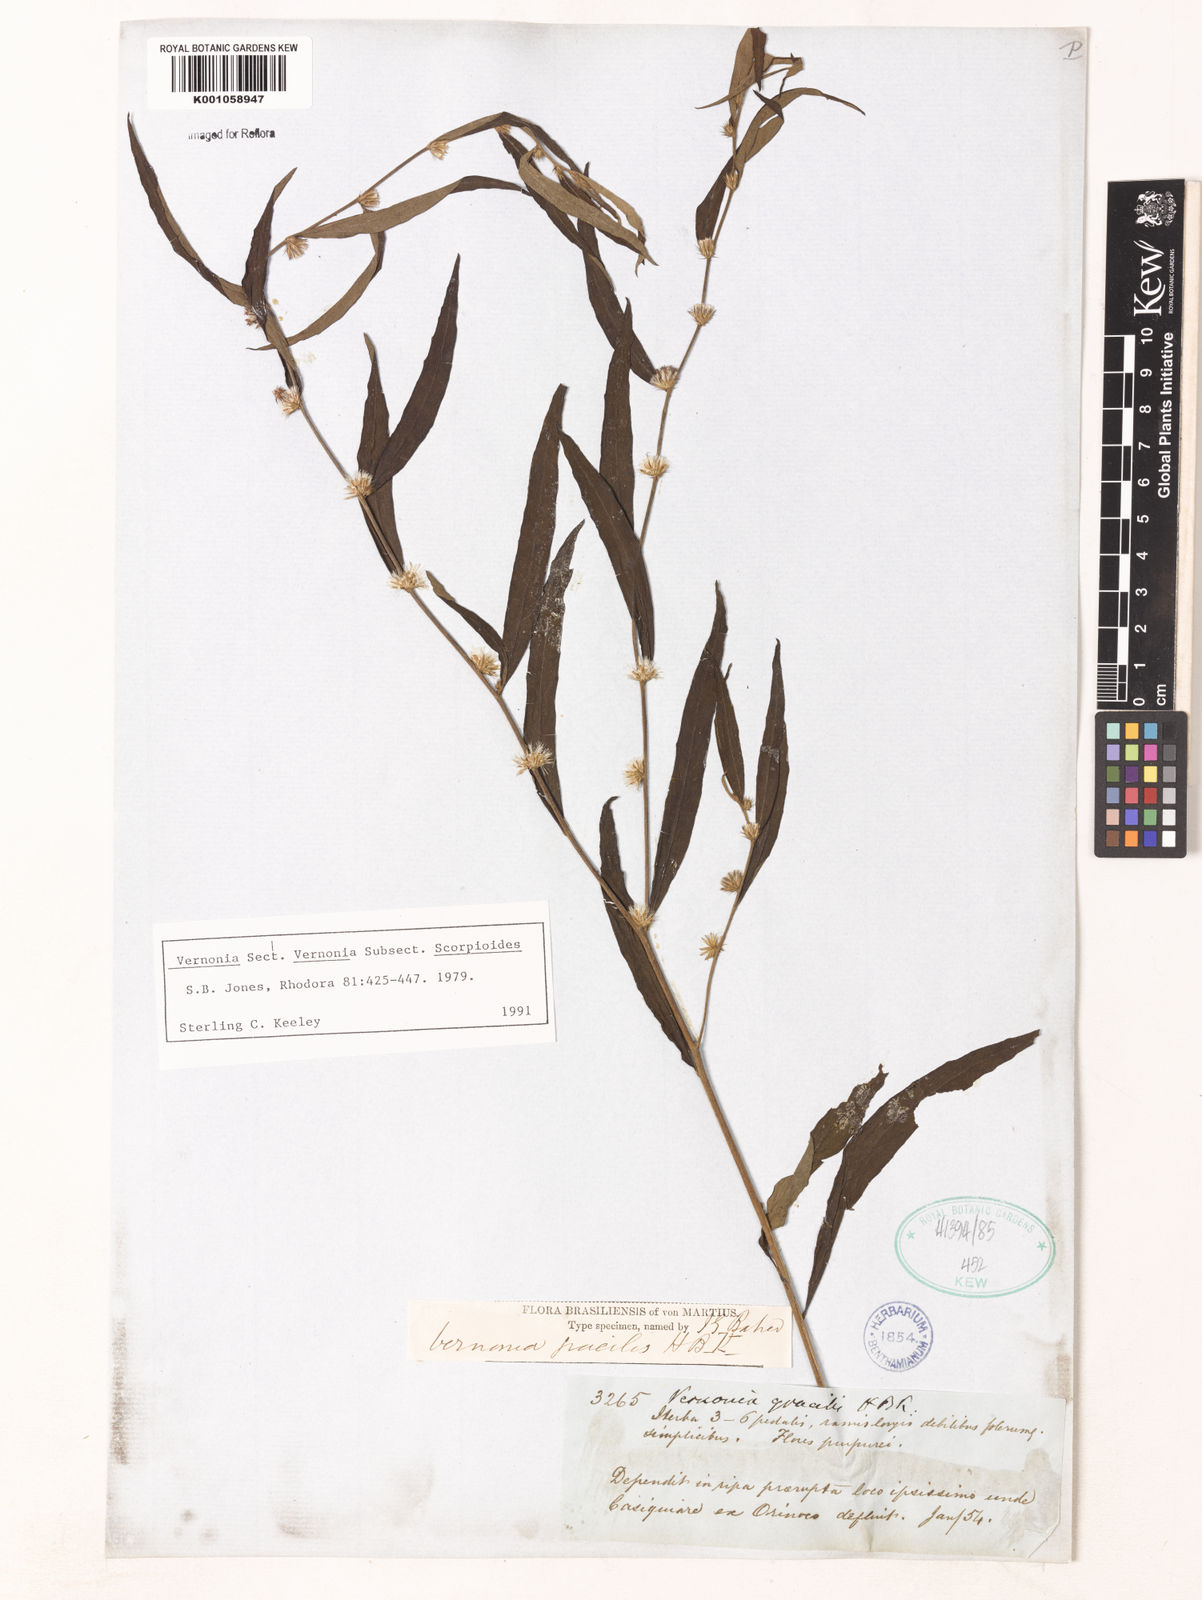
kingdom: Plantae
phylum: Tracheophyta
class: Magnoliopsida
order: Asterales
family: Asteraceae
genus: Lepidaploa
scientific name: Lepidaploa gracilis
